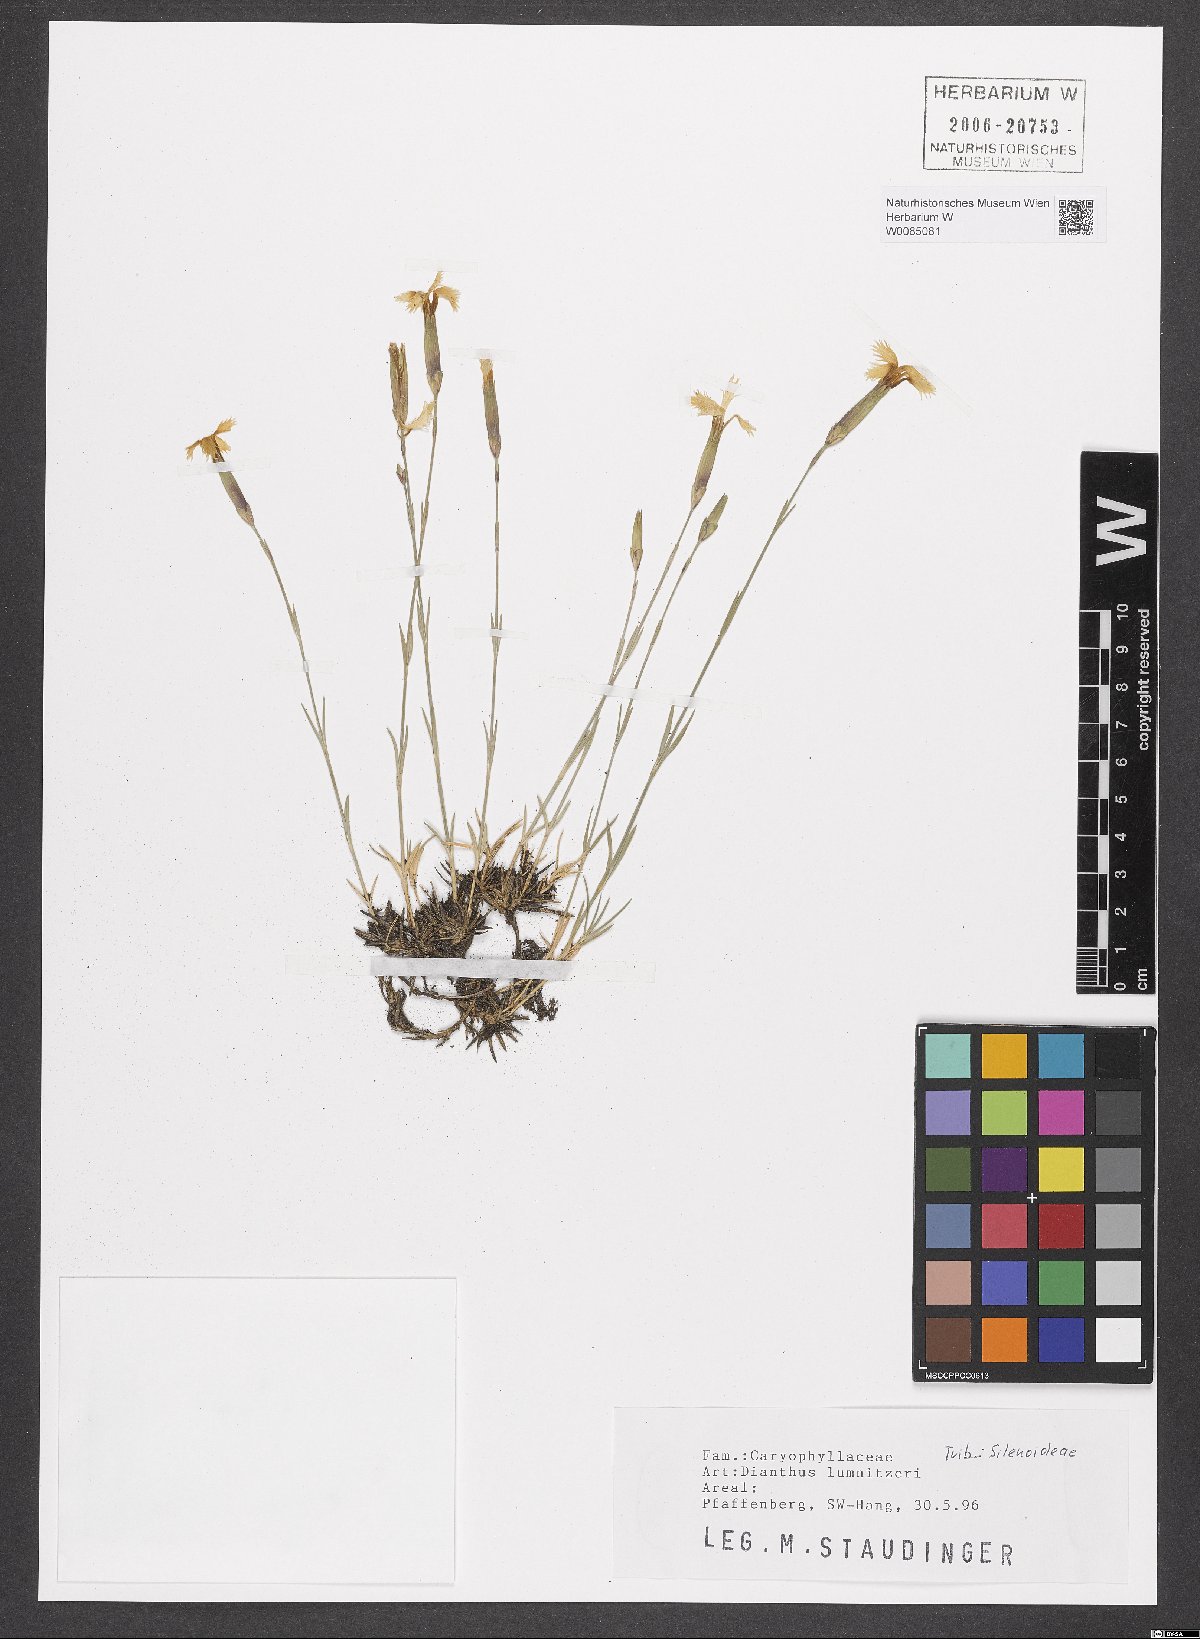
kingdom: Plantae
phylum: Tracheophyta
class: Magnoliopsida
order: Caryophyllales
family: Caryophyllaceae
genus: Dianthus
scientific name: Dianthus praecox
